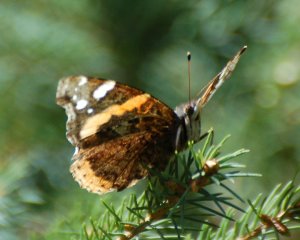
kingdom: Animalia
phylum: Arthropoda
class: Insecta
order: Lepidoptera
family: Nymphalidae
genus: Vanessa
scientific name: Vanessa atalanta
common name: Red Admiral
